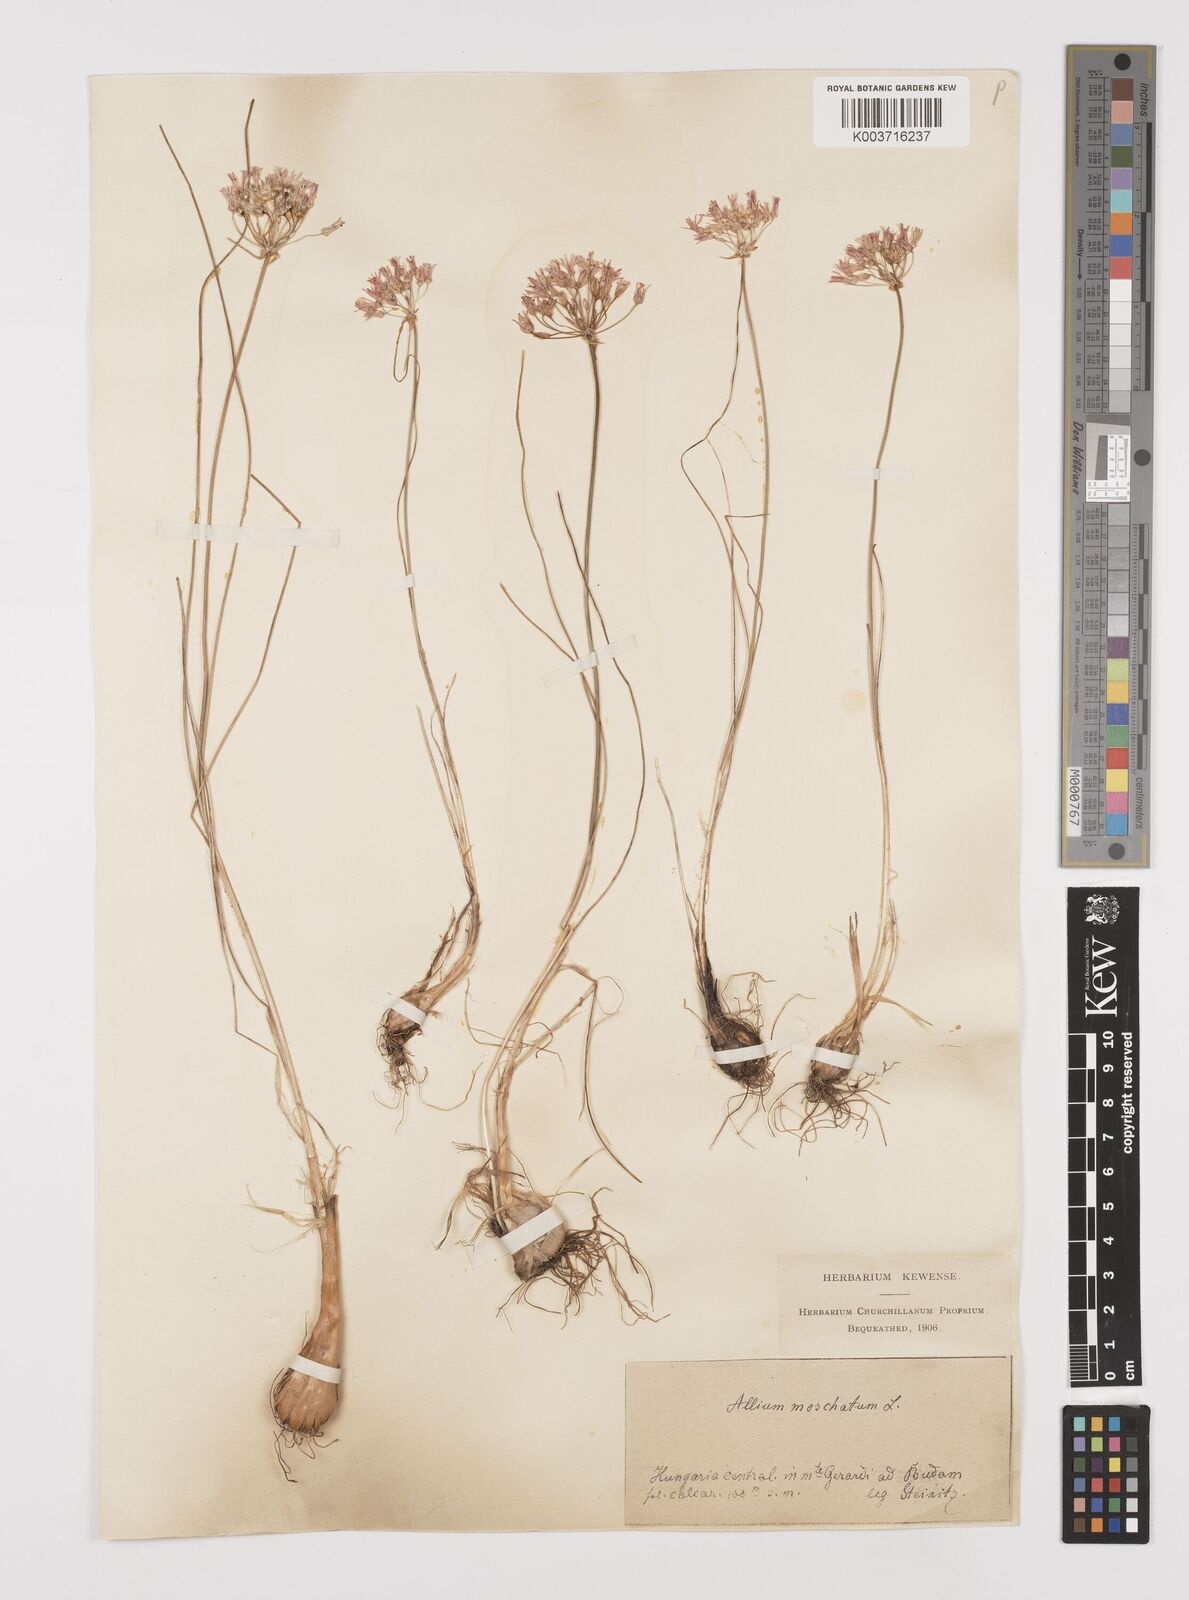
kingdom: Plantae
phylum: Tracheophyta
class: Liliopsida
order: Asparagales
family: Amaryllidaceae
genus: Allium
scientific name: Allium moschatum
